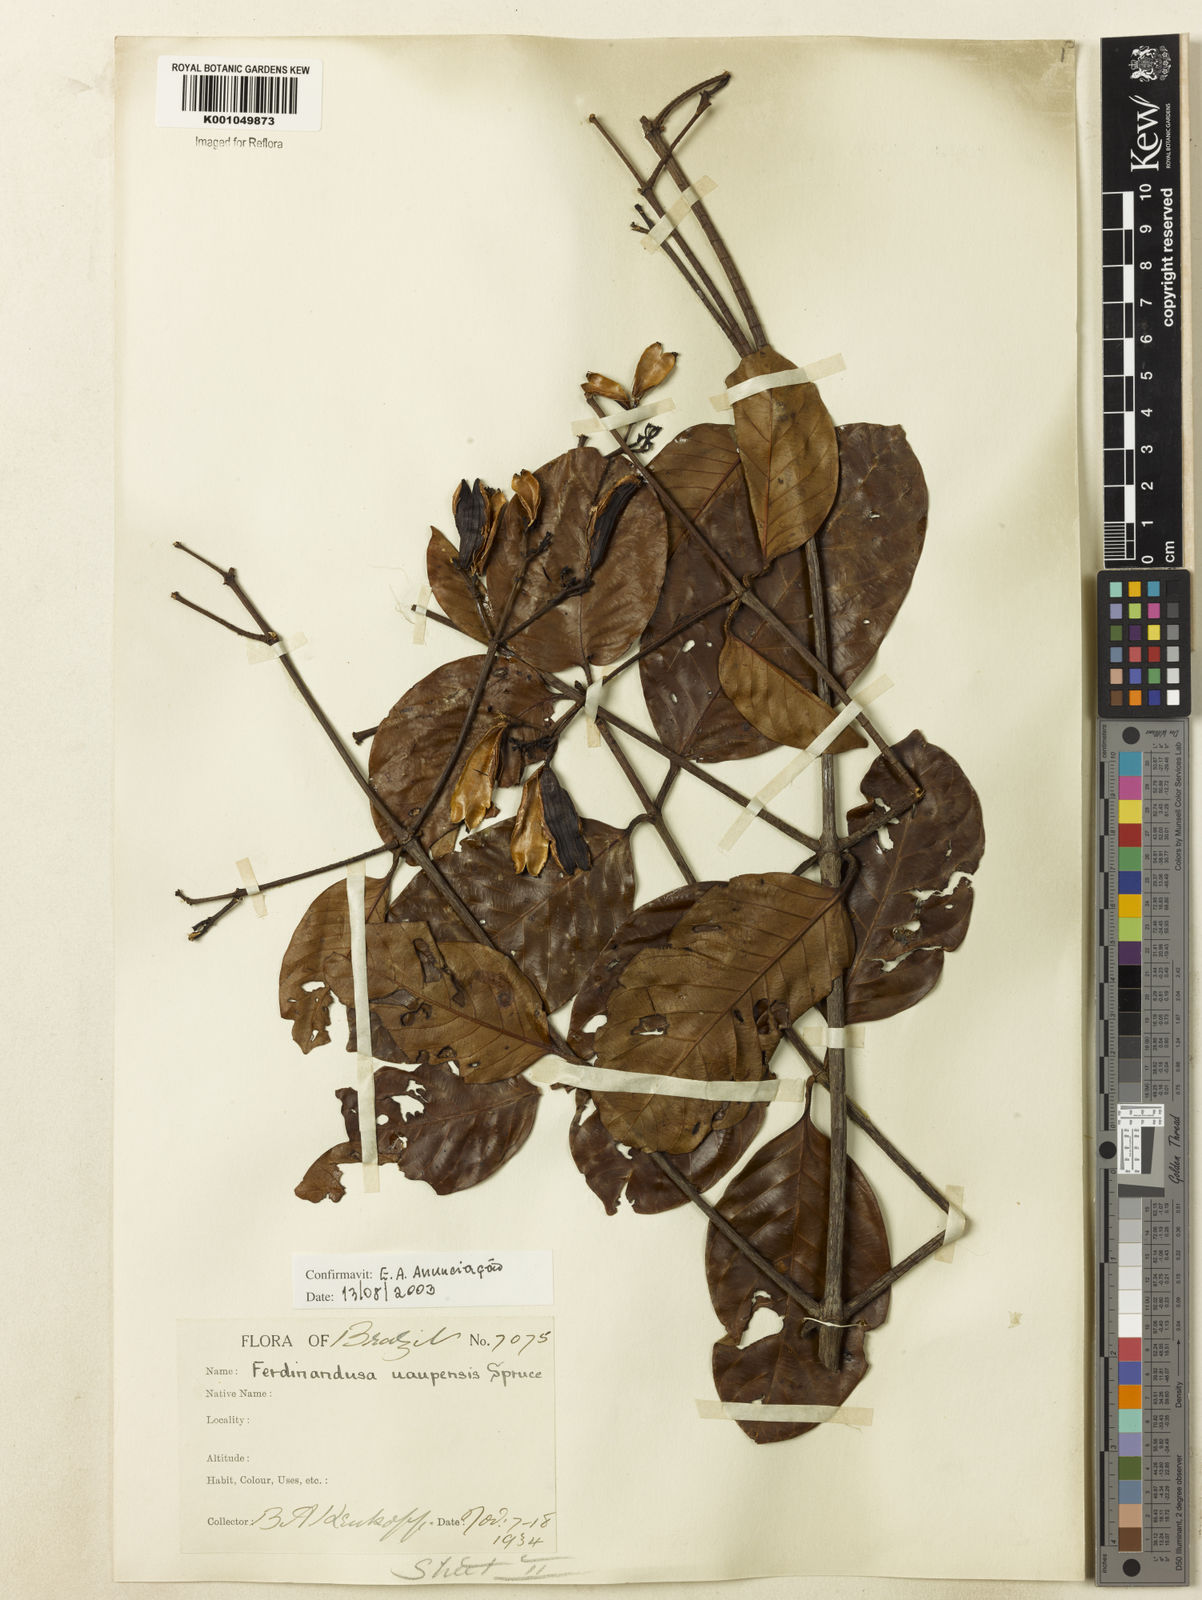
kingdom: Plantae
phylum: Tracheophyta
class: Magnoliopsida
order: Gentianales
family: Rubiaceae
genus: Ferdinandusa
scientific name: Ferdinandusa uaupensis
